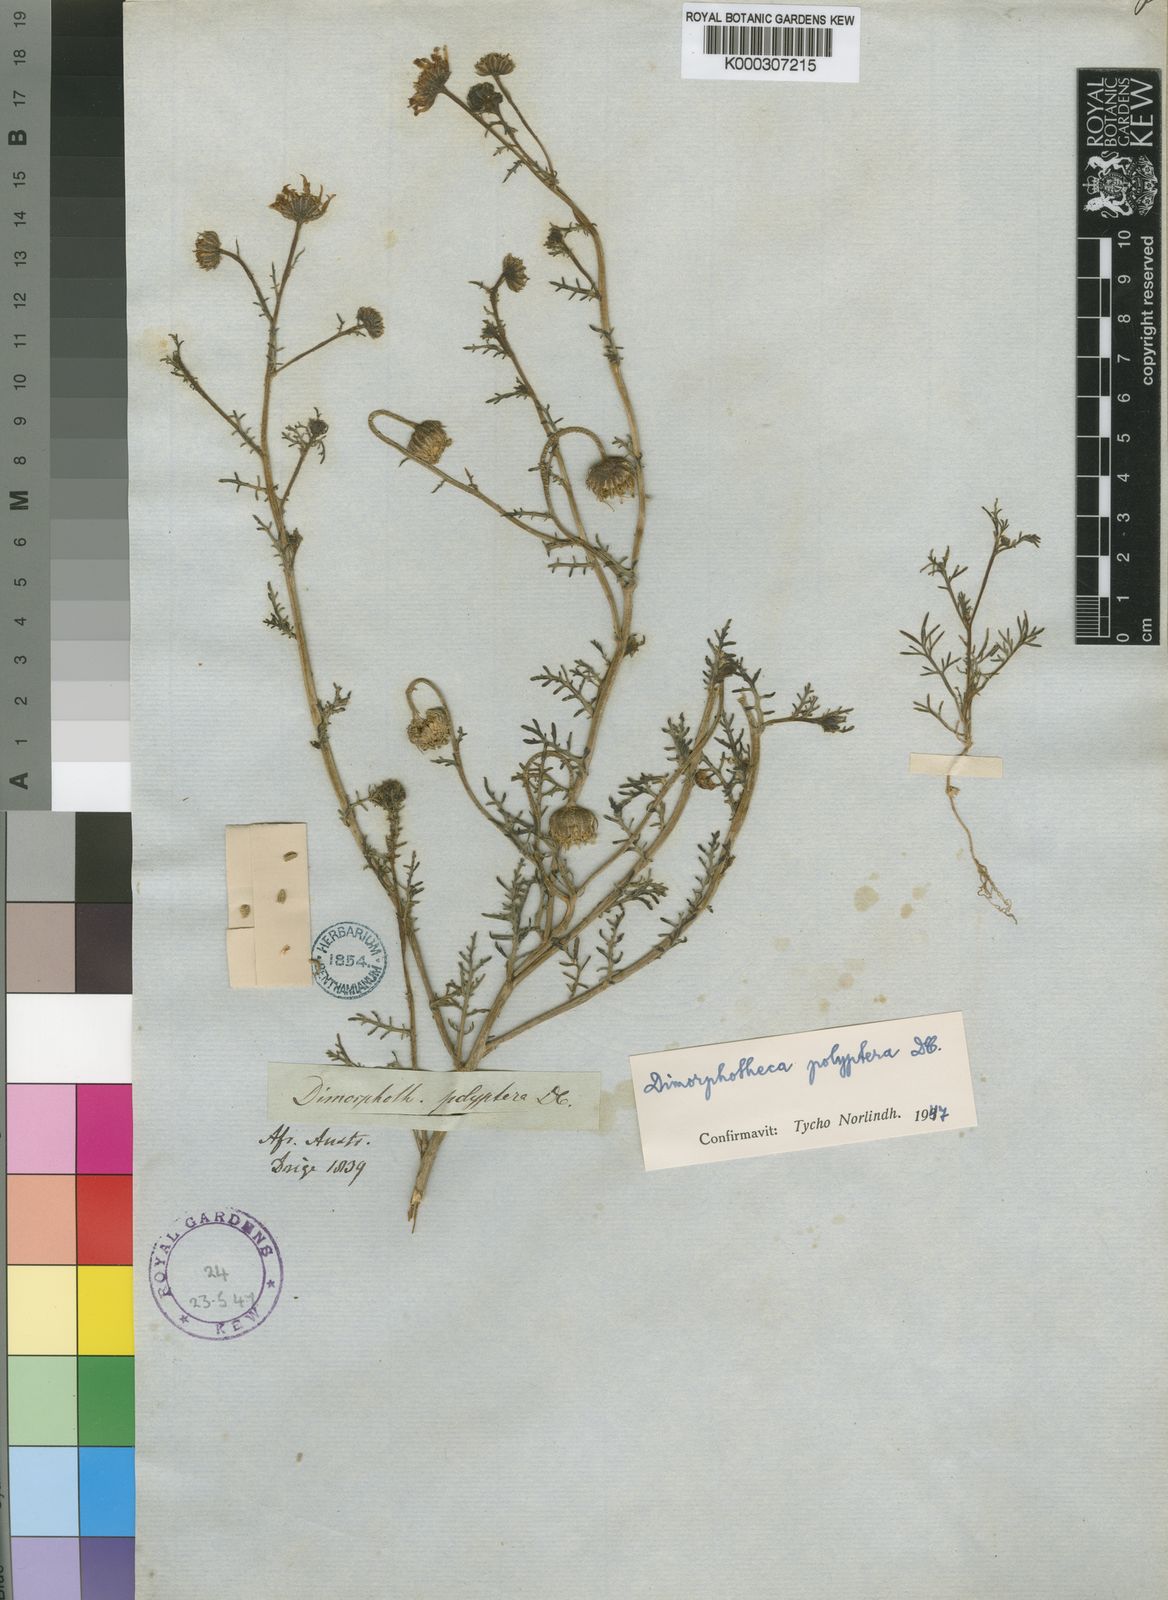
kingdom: Plantae
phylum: Tracheophyta
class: Magnoliopsida
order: Asterales
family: Asteraceae
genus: Osteospermum
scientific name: Osteospermum polypterum
